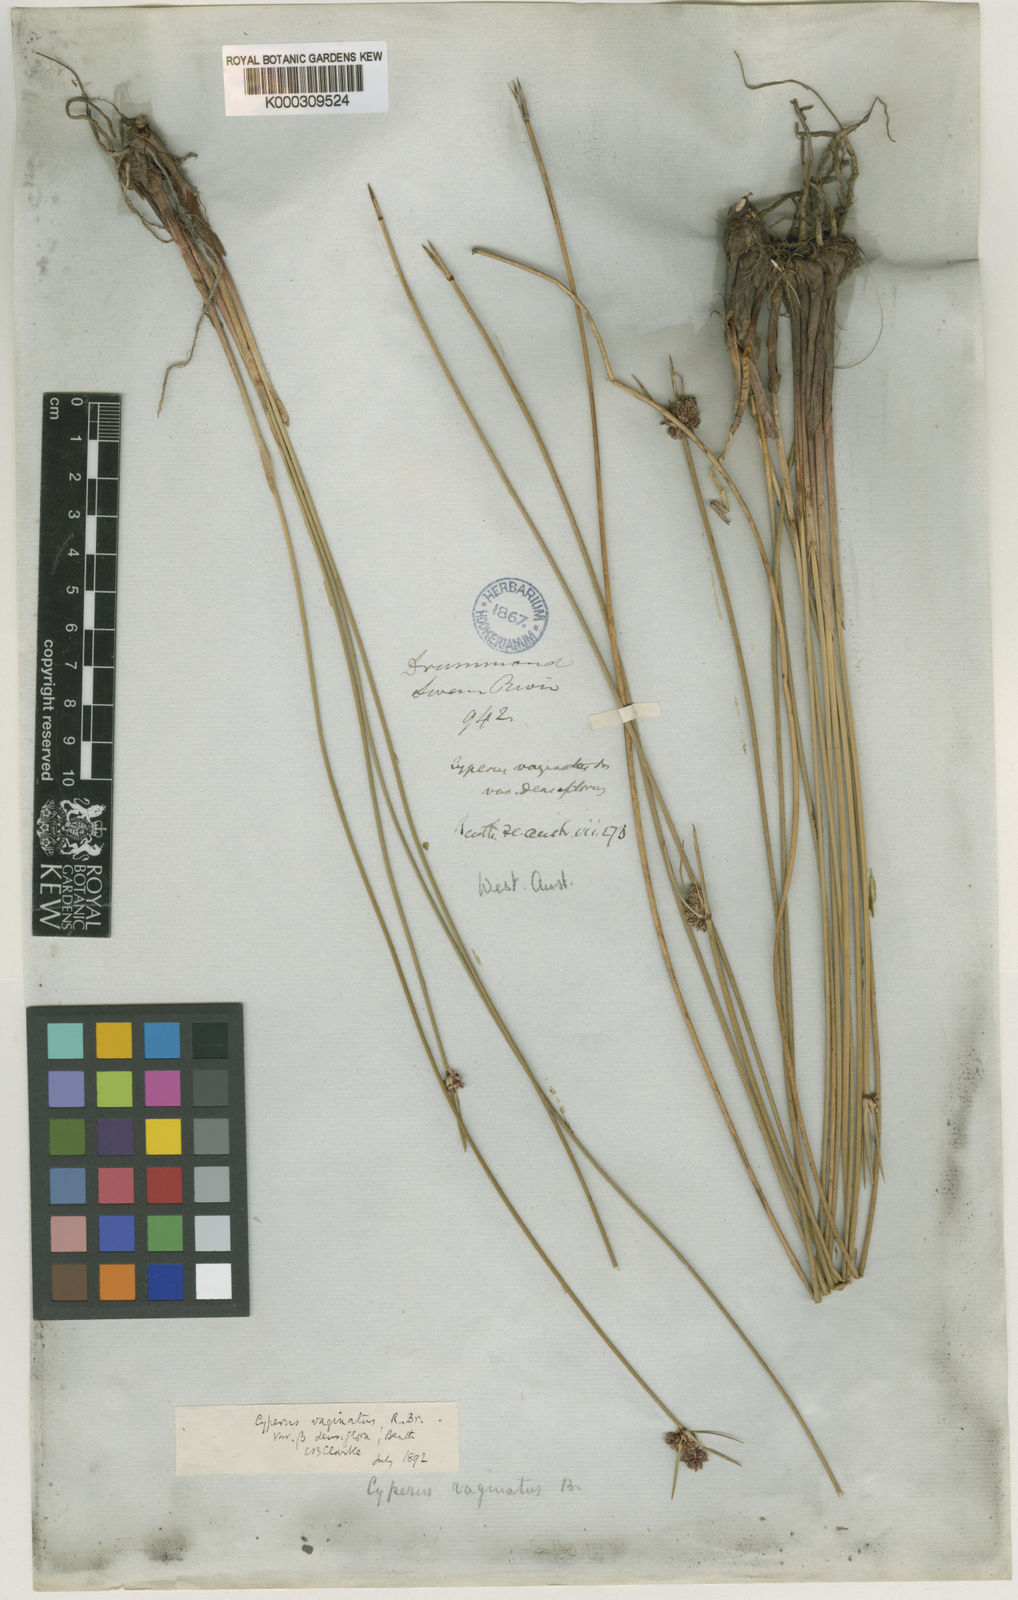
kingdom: Plantae
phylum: Tracheophyta
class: Liliopsida
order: Poales
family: Cyperaceae
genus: Cyperus
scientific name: Cyperus gymnocaulos
